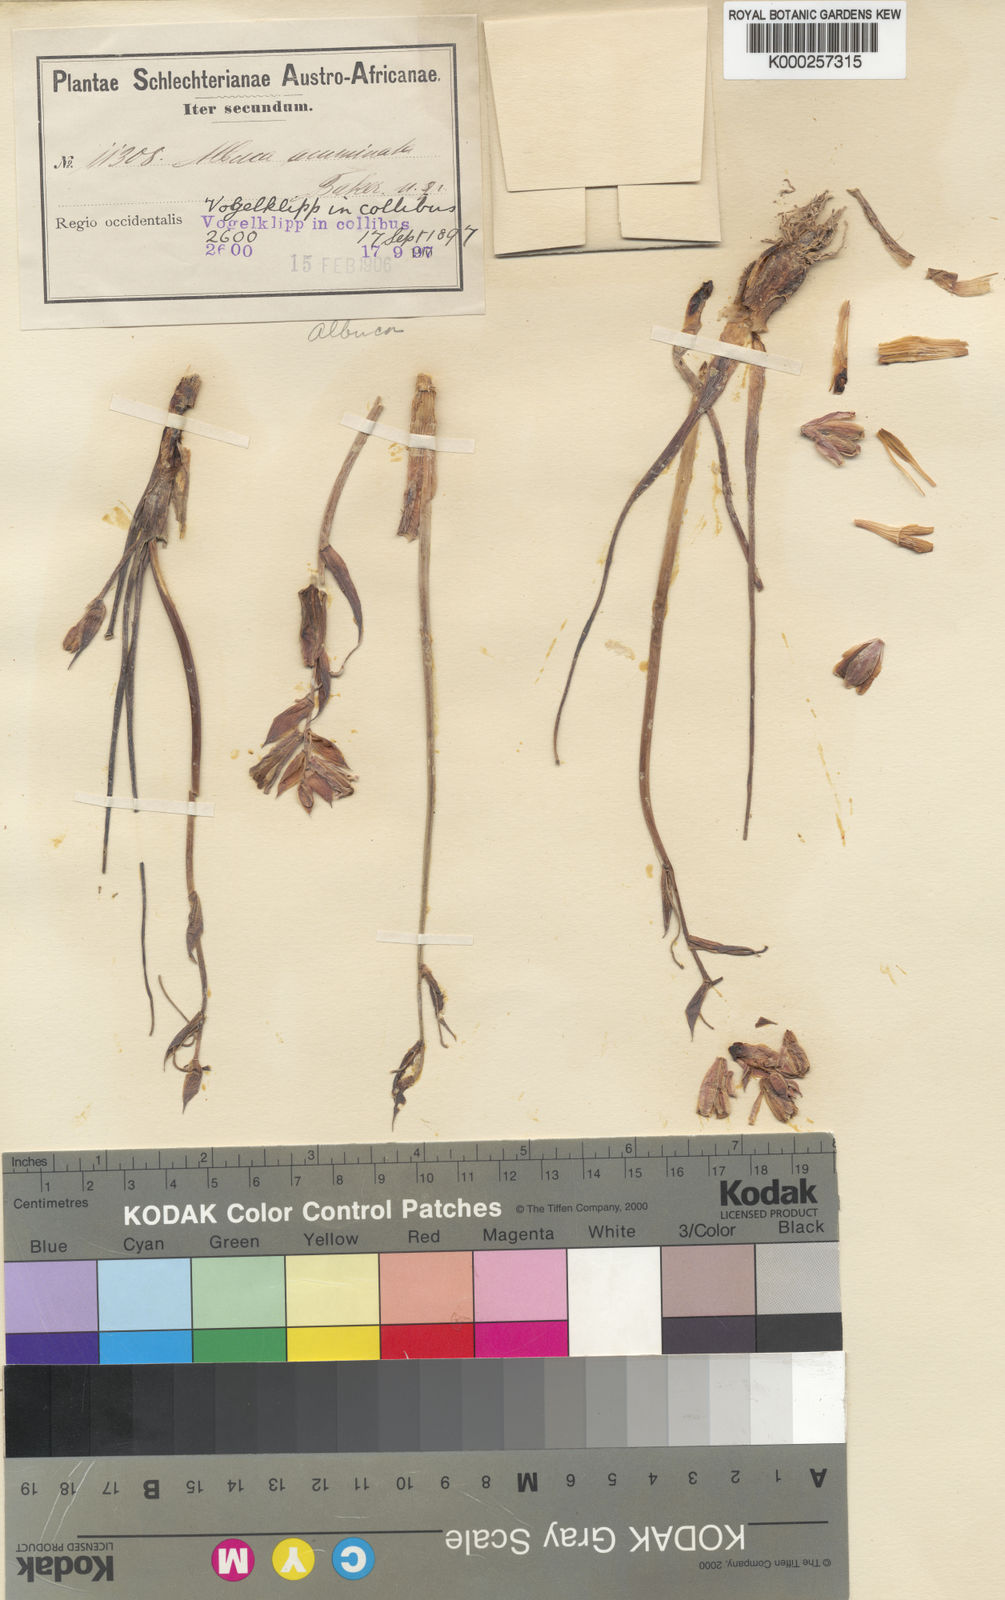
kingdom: Plantae
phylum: Tracheophyta
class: Liliopsida
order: Asparagales
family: Asparagaceae
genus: Albuca
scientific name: Albuca acuminata
